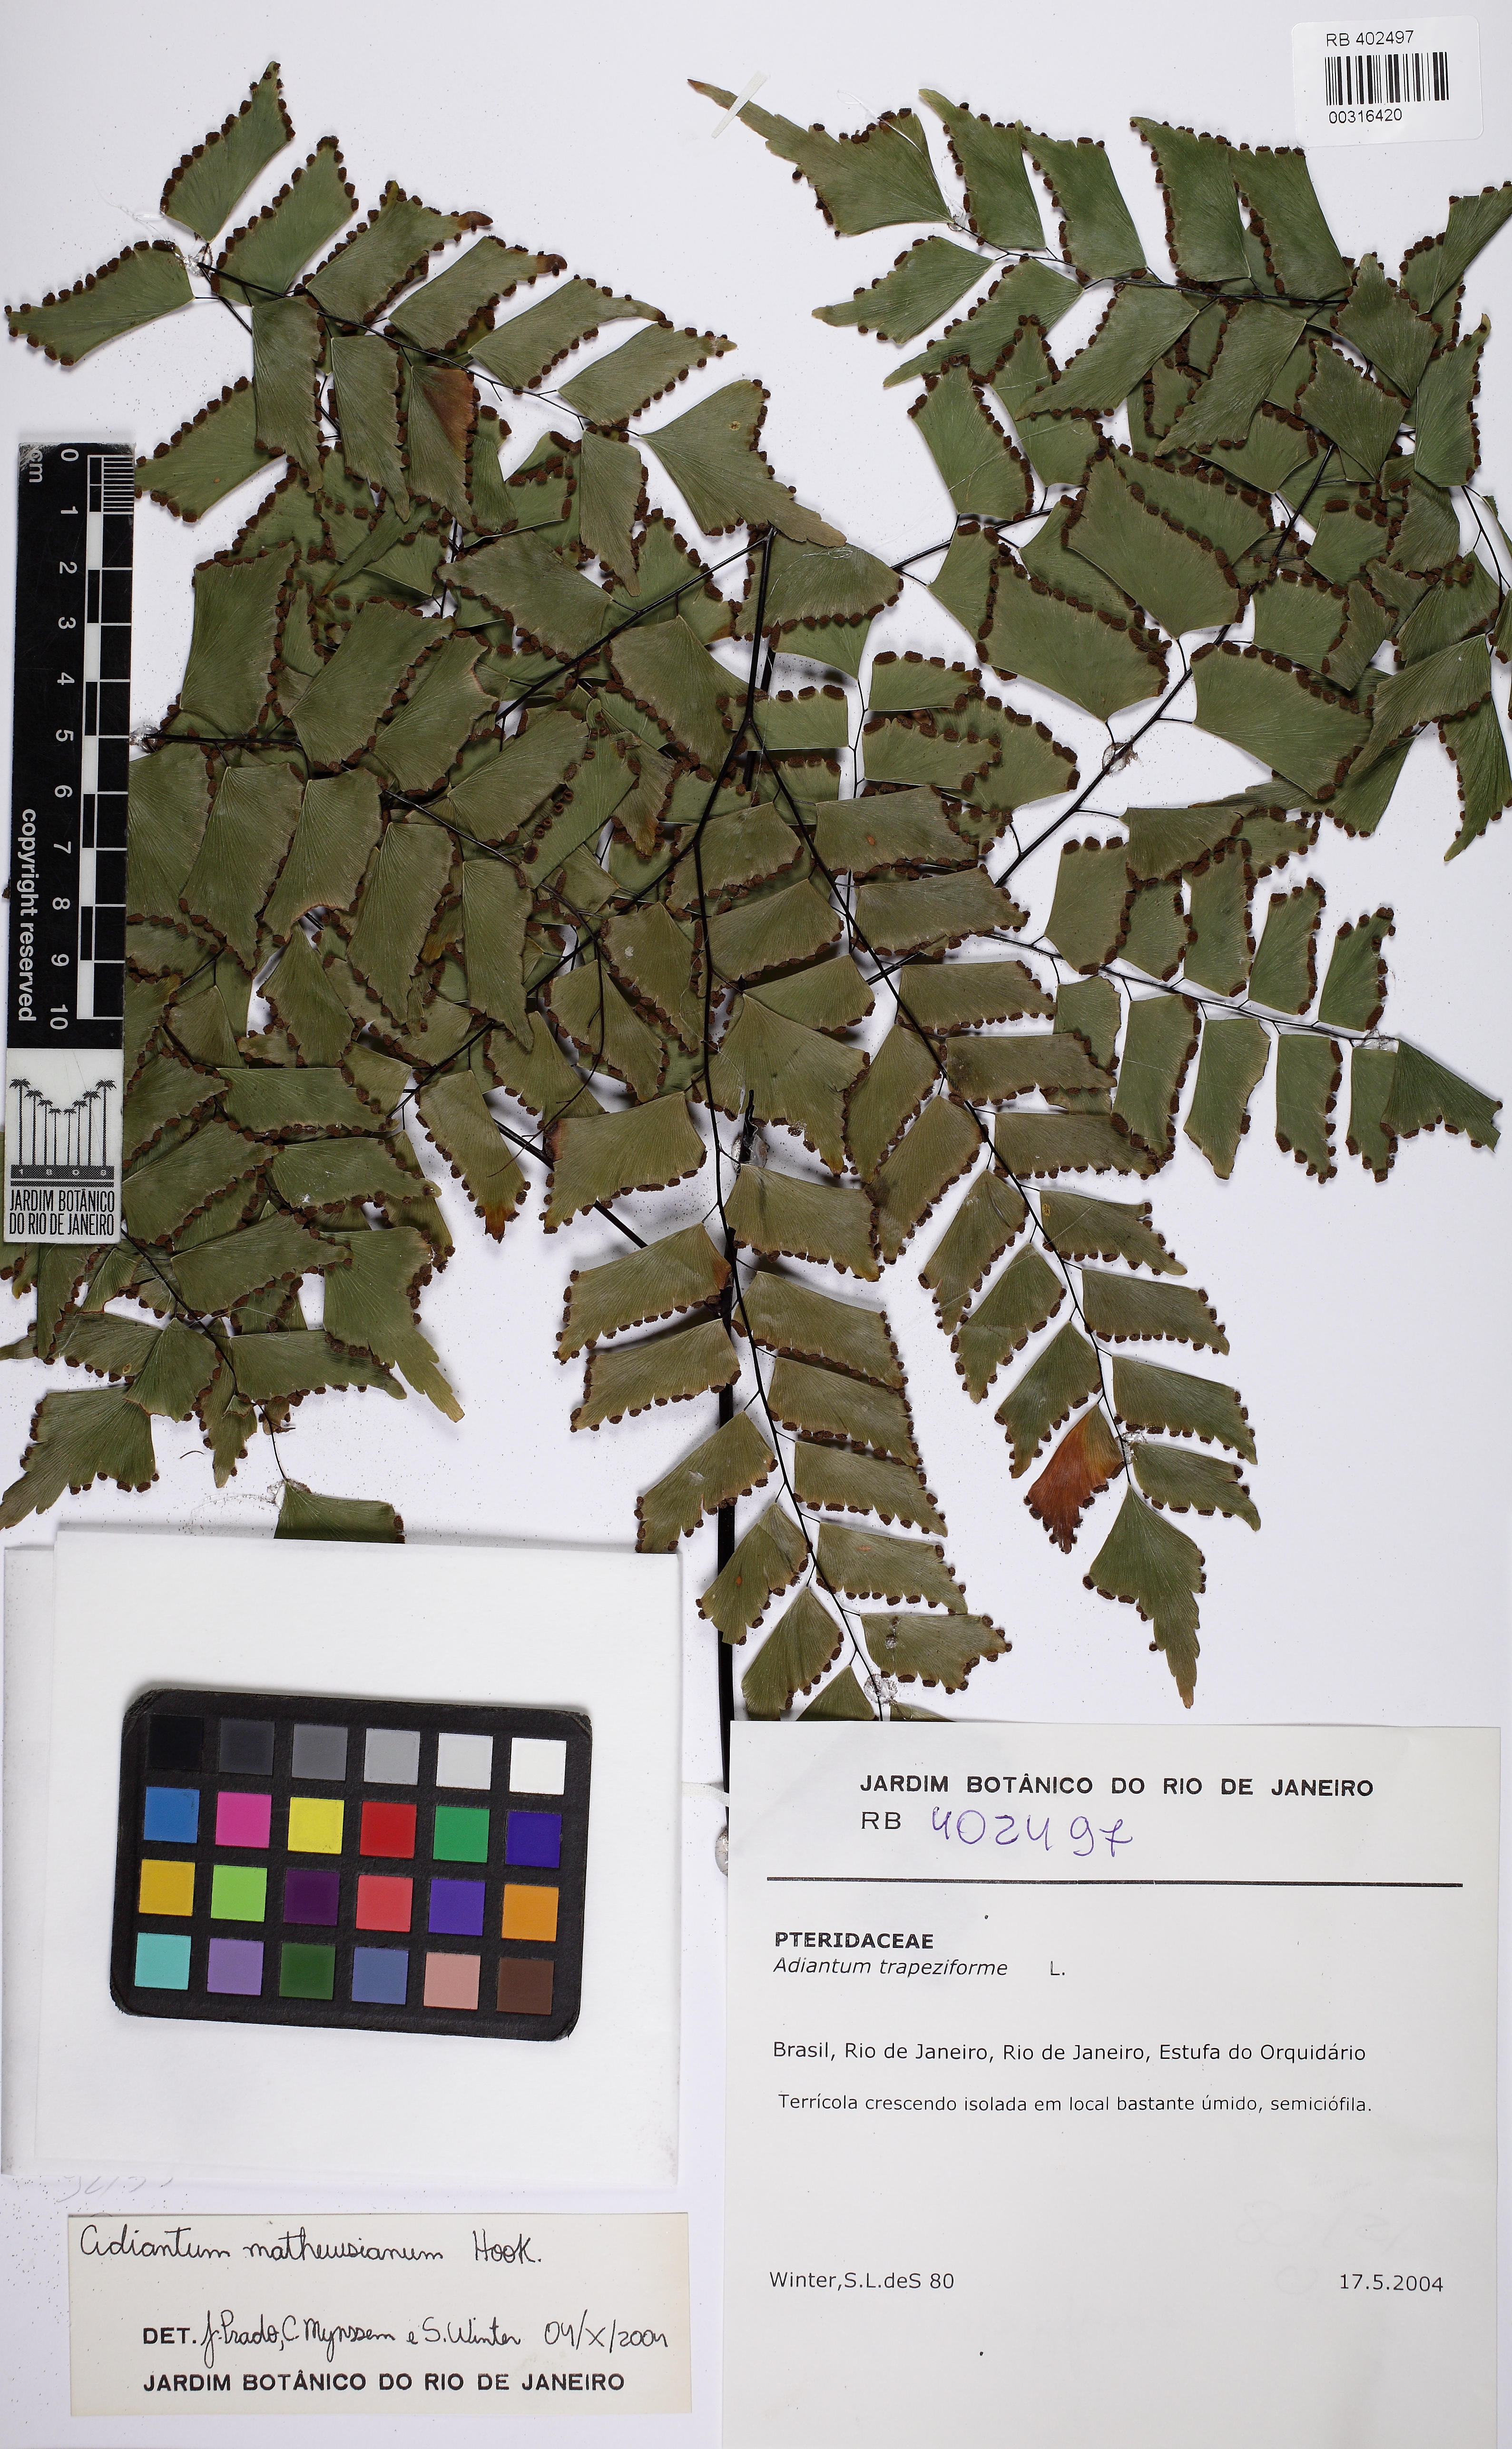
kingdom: Plantae
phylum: Tracheophyta
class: Polypodiopsida
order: Polypodiales
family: Pteridaceae
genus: Adiantum
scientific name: Adiantum mathewsianum
